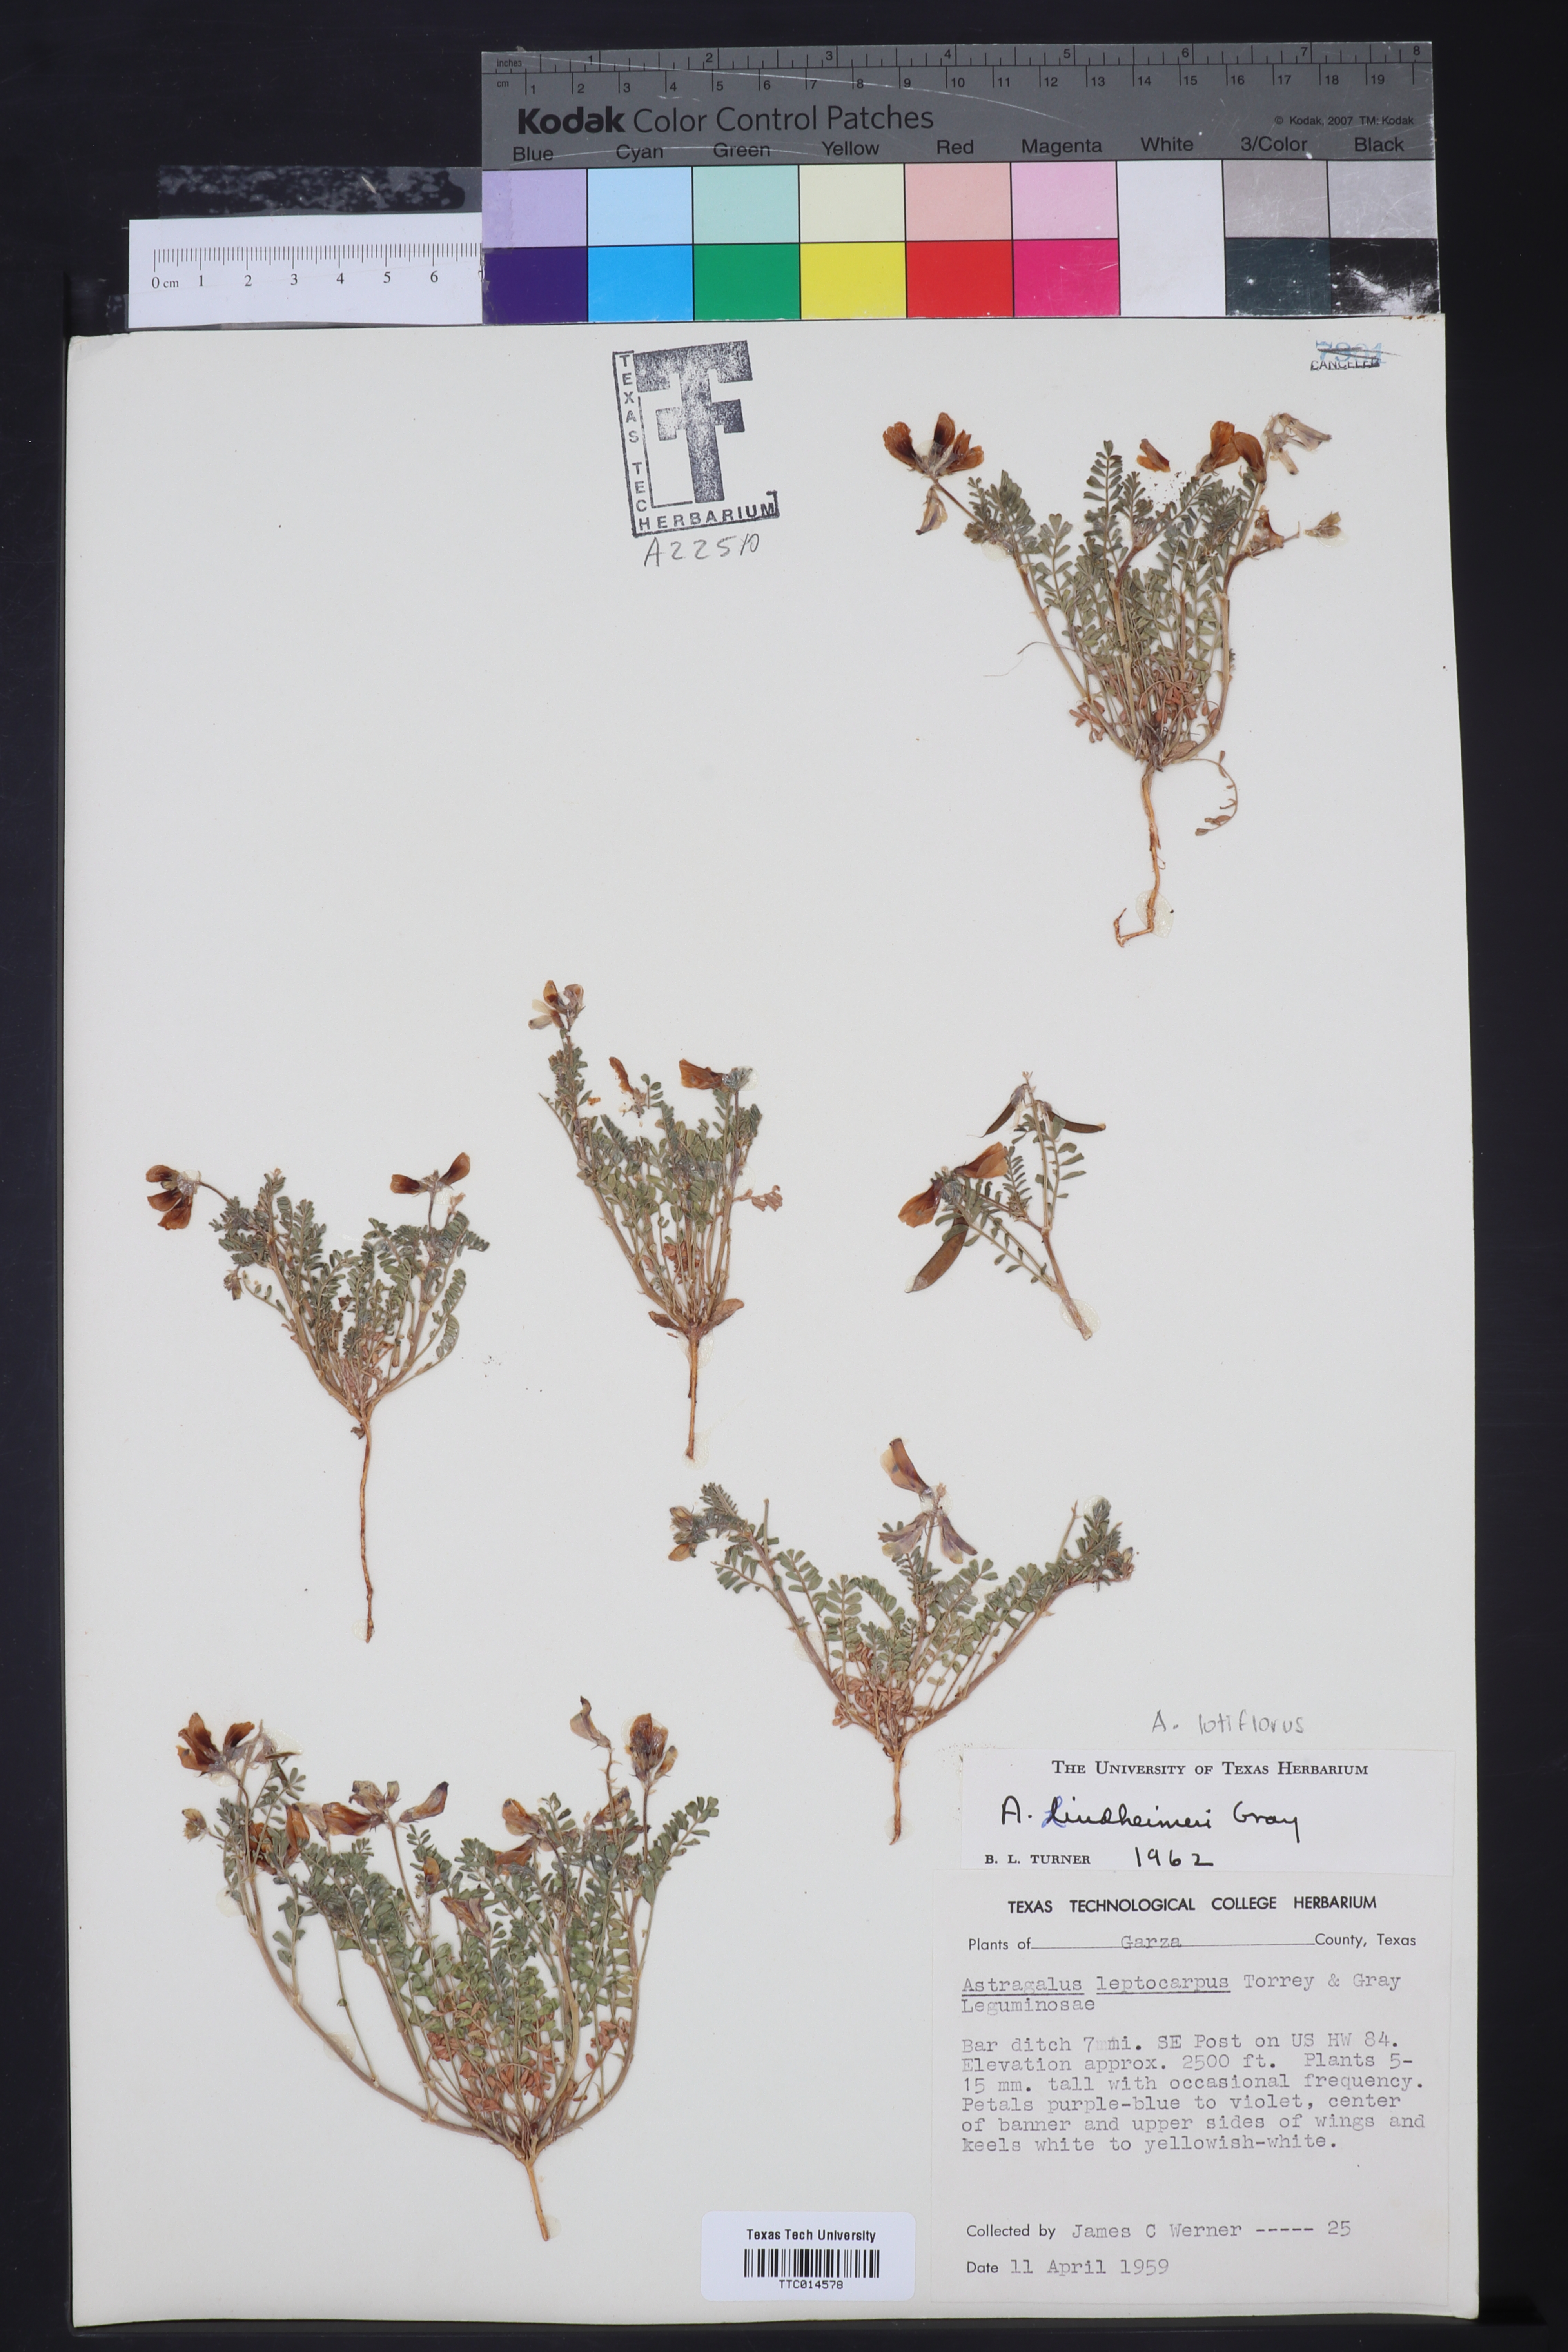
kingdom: Plantae
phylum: Tracheophyta
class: Magnoliopsida
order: Fabales
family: Fabaceae
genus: Astragalus
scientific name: Astragalus
